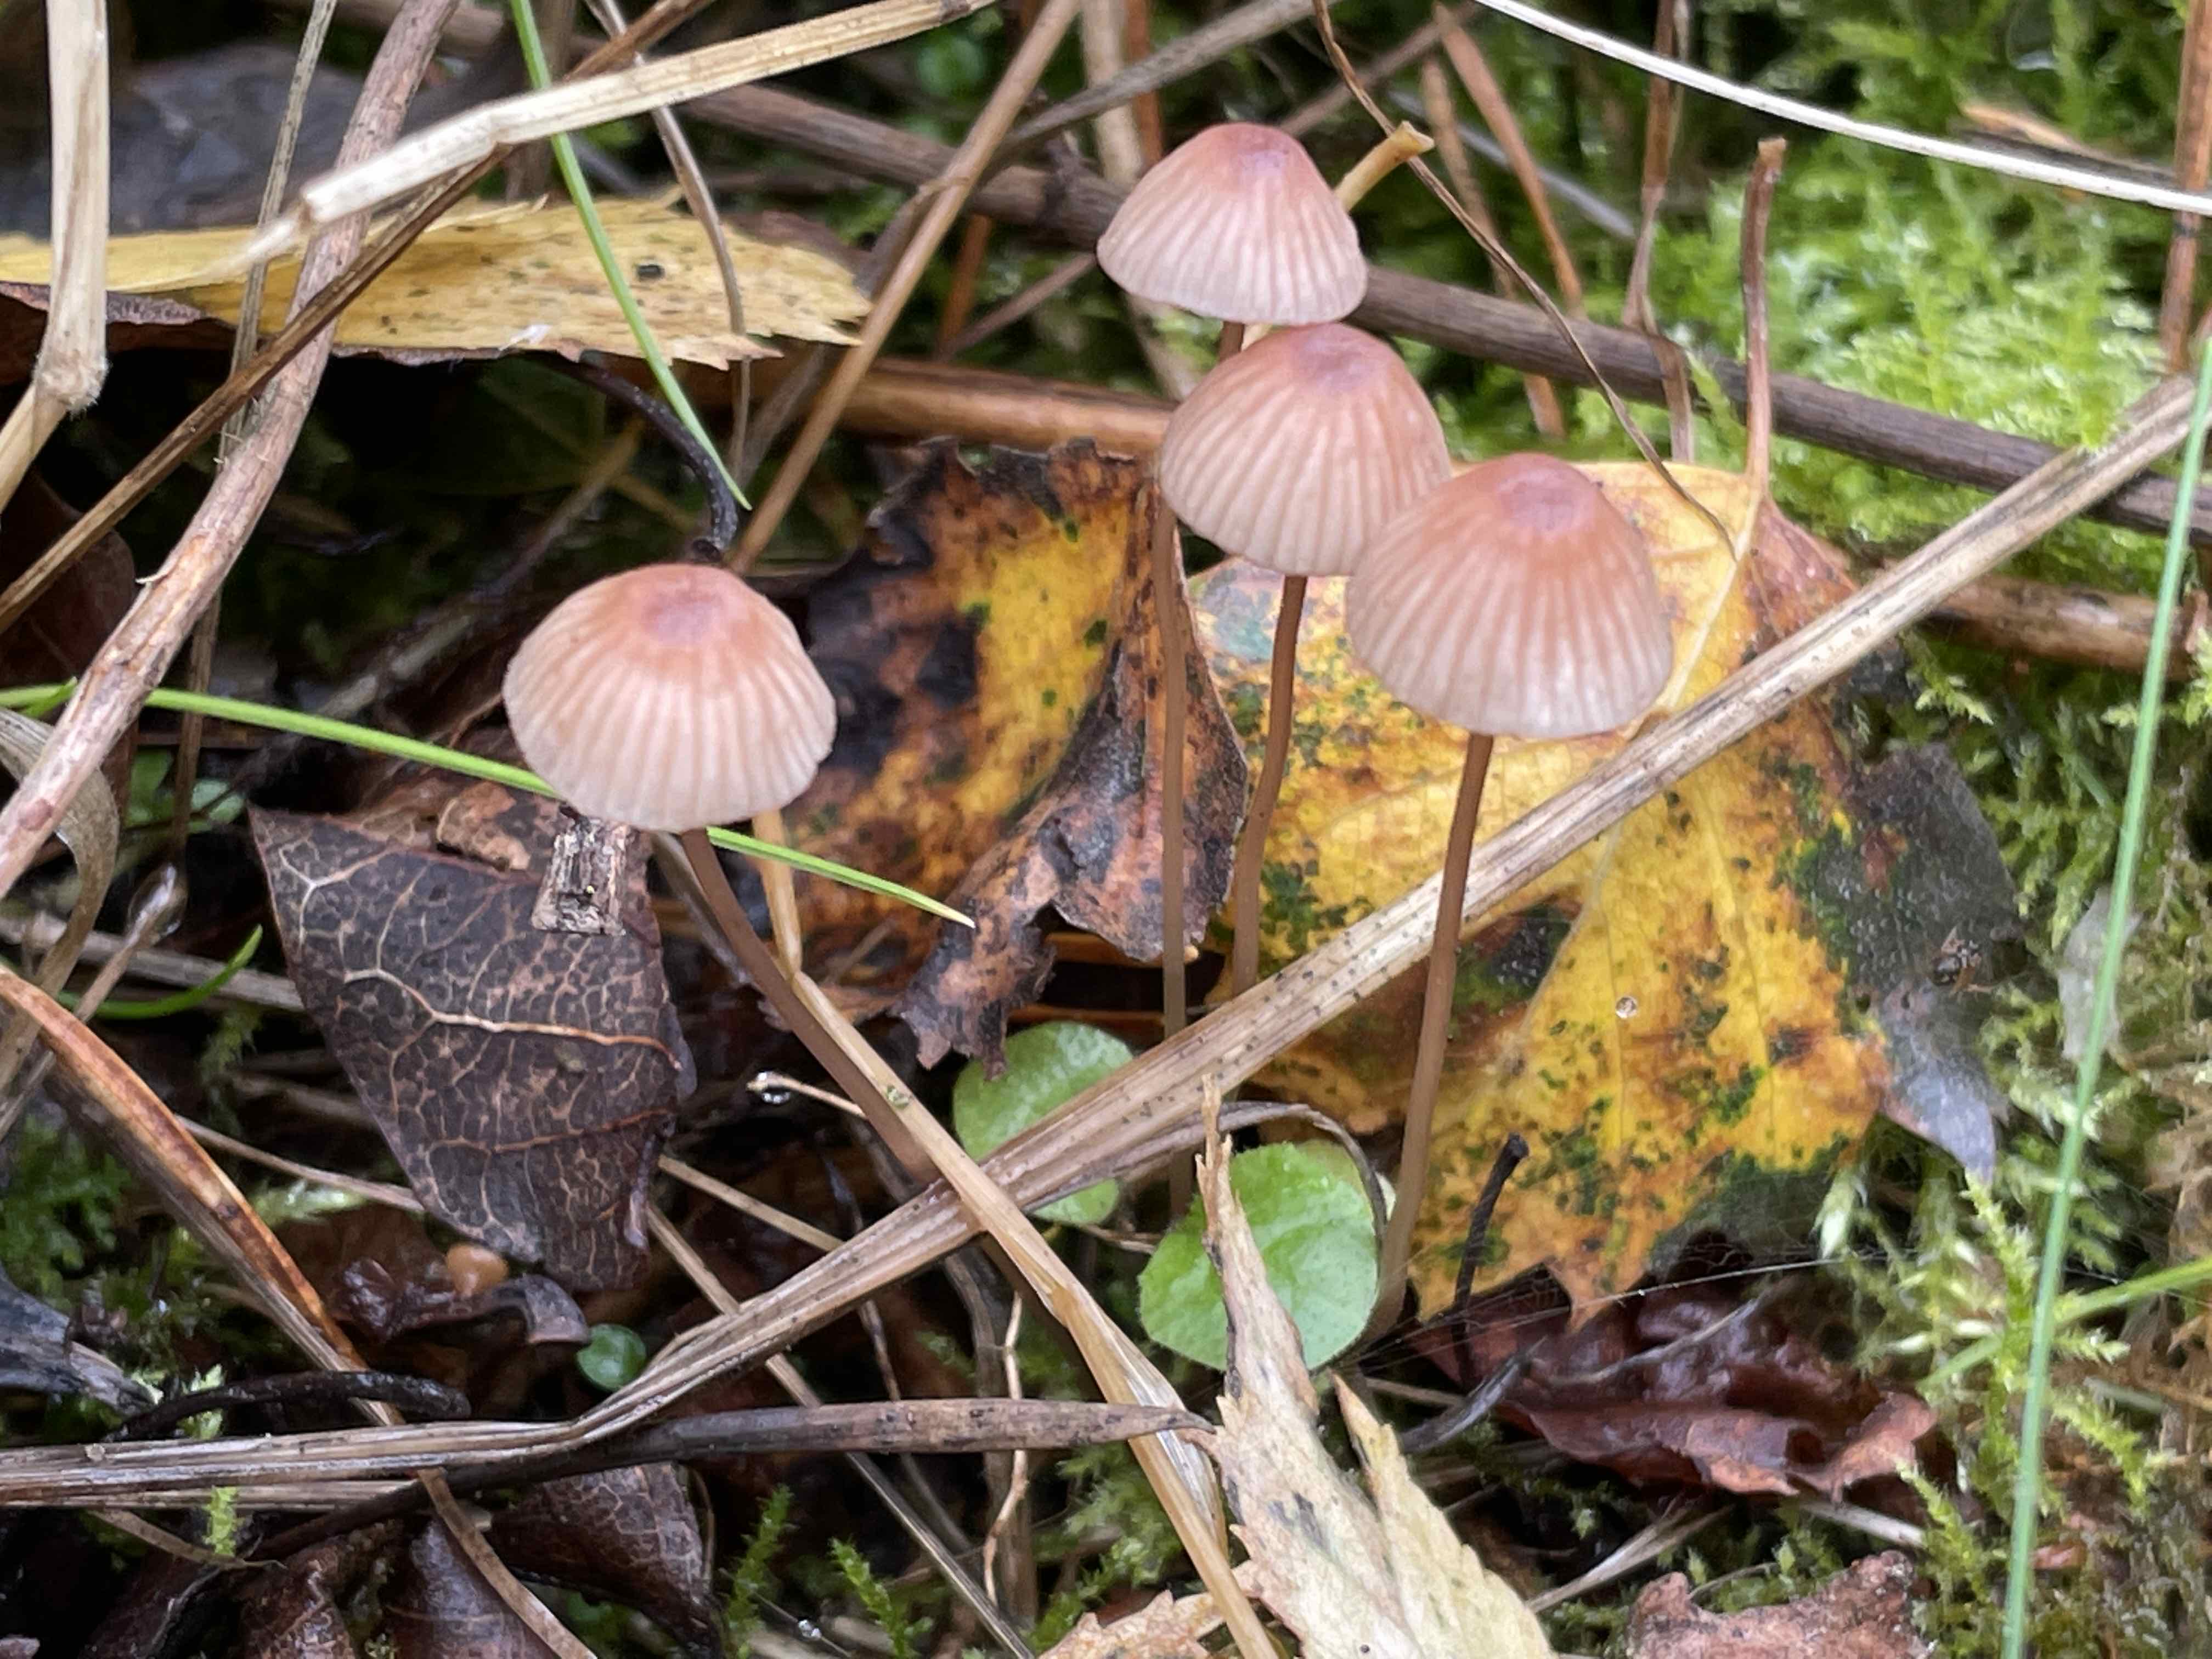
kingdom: Fungi
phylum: Basidiomycota
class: Agaricomycetes
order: Agaricales
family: Mycenaceae
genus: Mycena
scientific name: Mycena sanguinolenta
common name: rødmælket huesvamp
